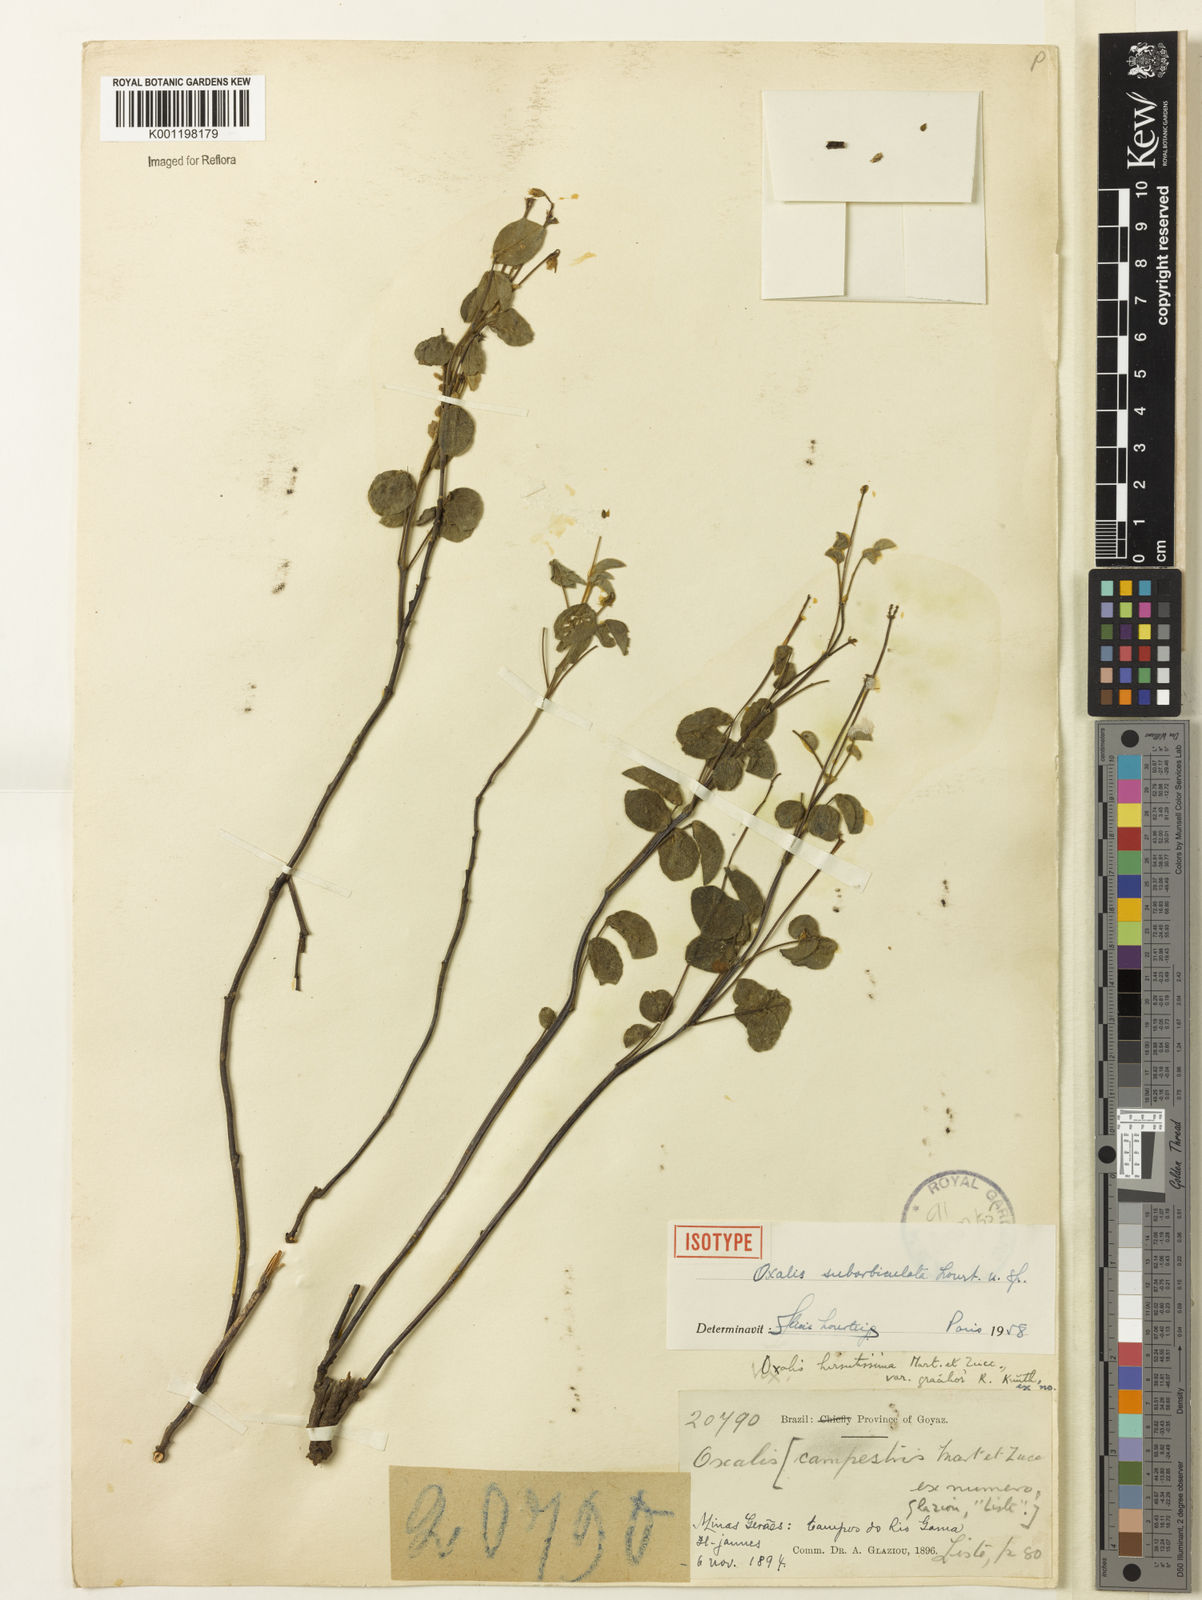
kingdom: Plantae
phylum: Tracheophyta
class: Magnoliopsida
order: Oxalidales
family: Oxalidaceae
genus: Oxalis
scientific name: Oxalis suborbiculata
